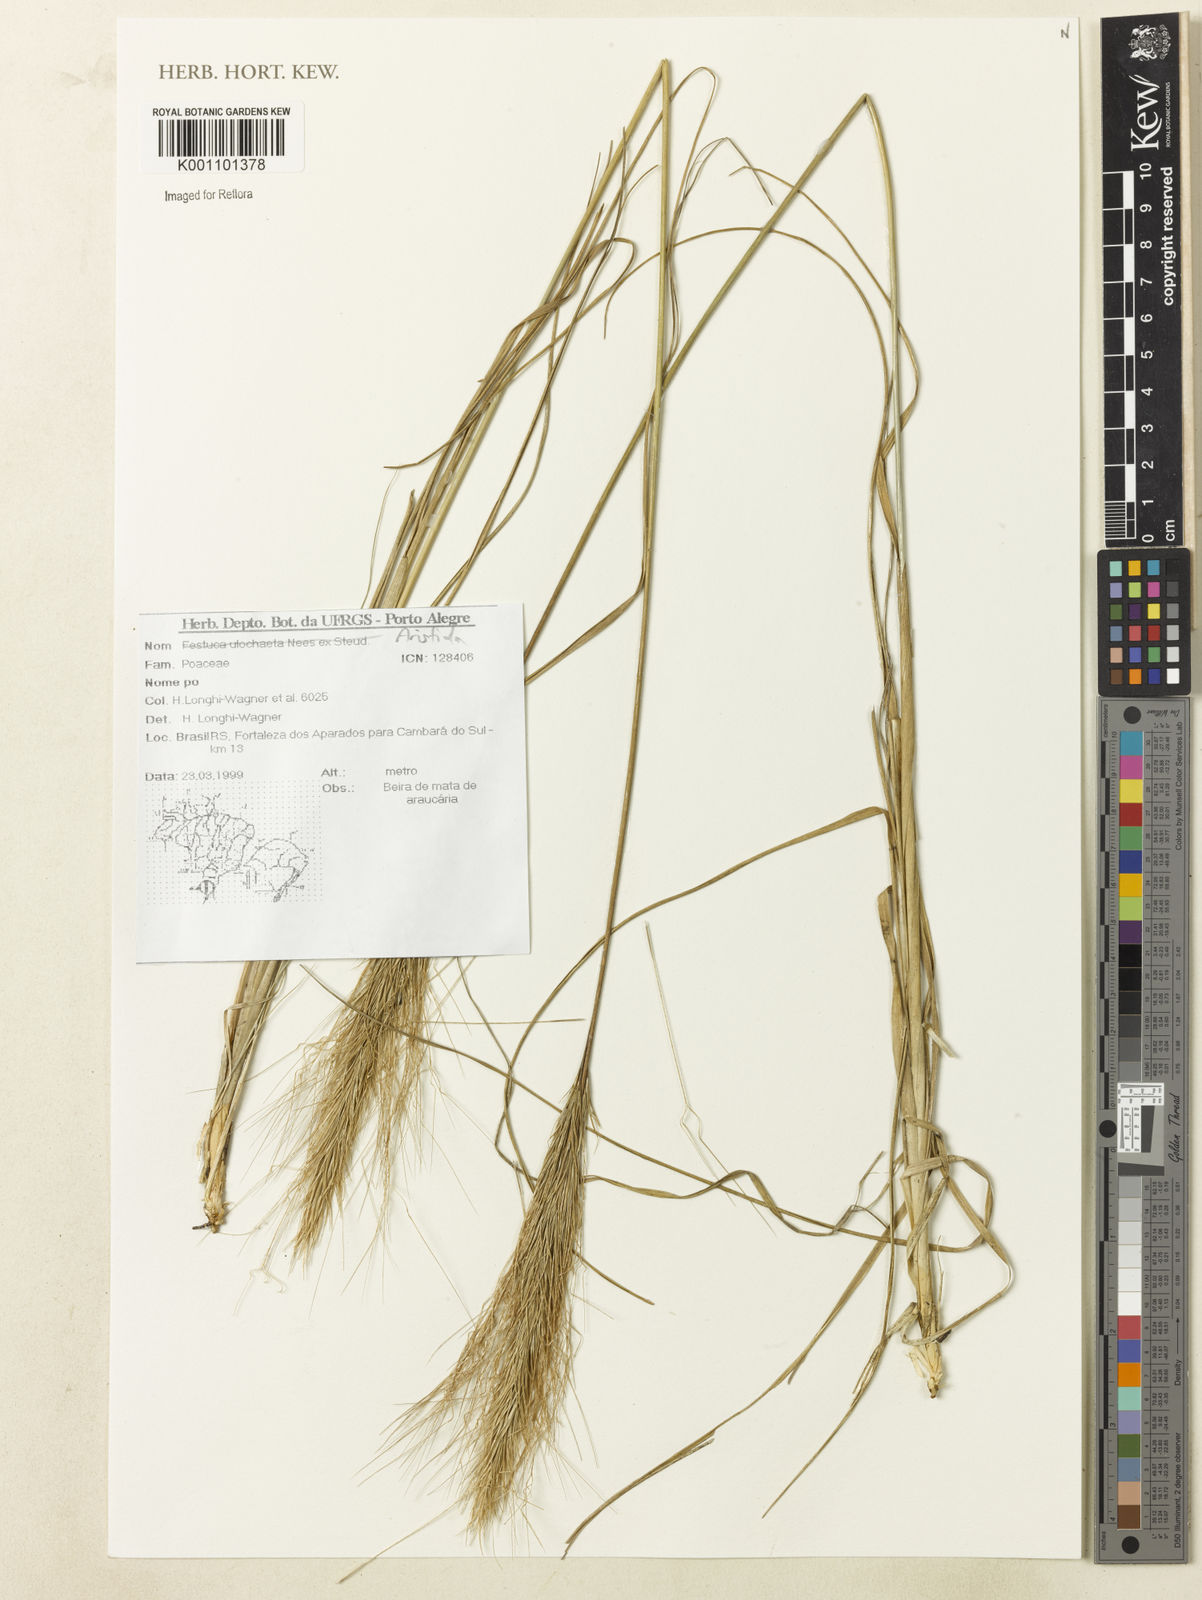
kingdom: Plantae
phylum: Tracheophyta
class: Liliopsida
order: Poales
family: Poaceae
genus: Aristida
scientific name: Aristida
